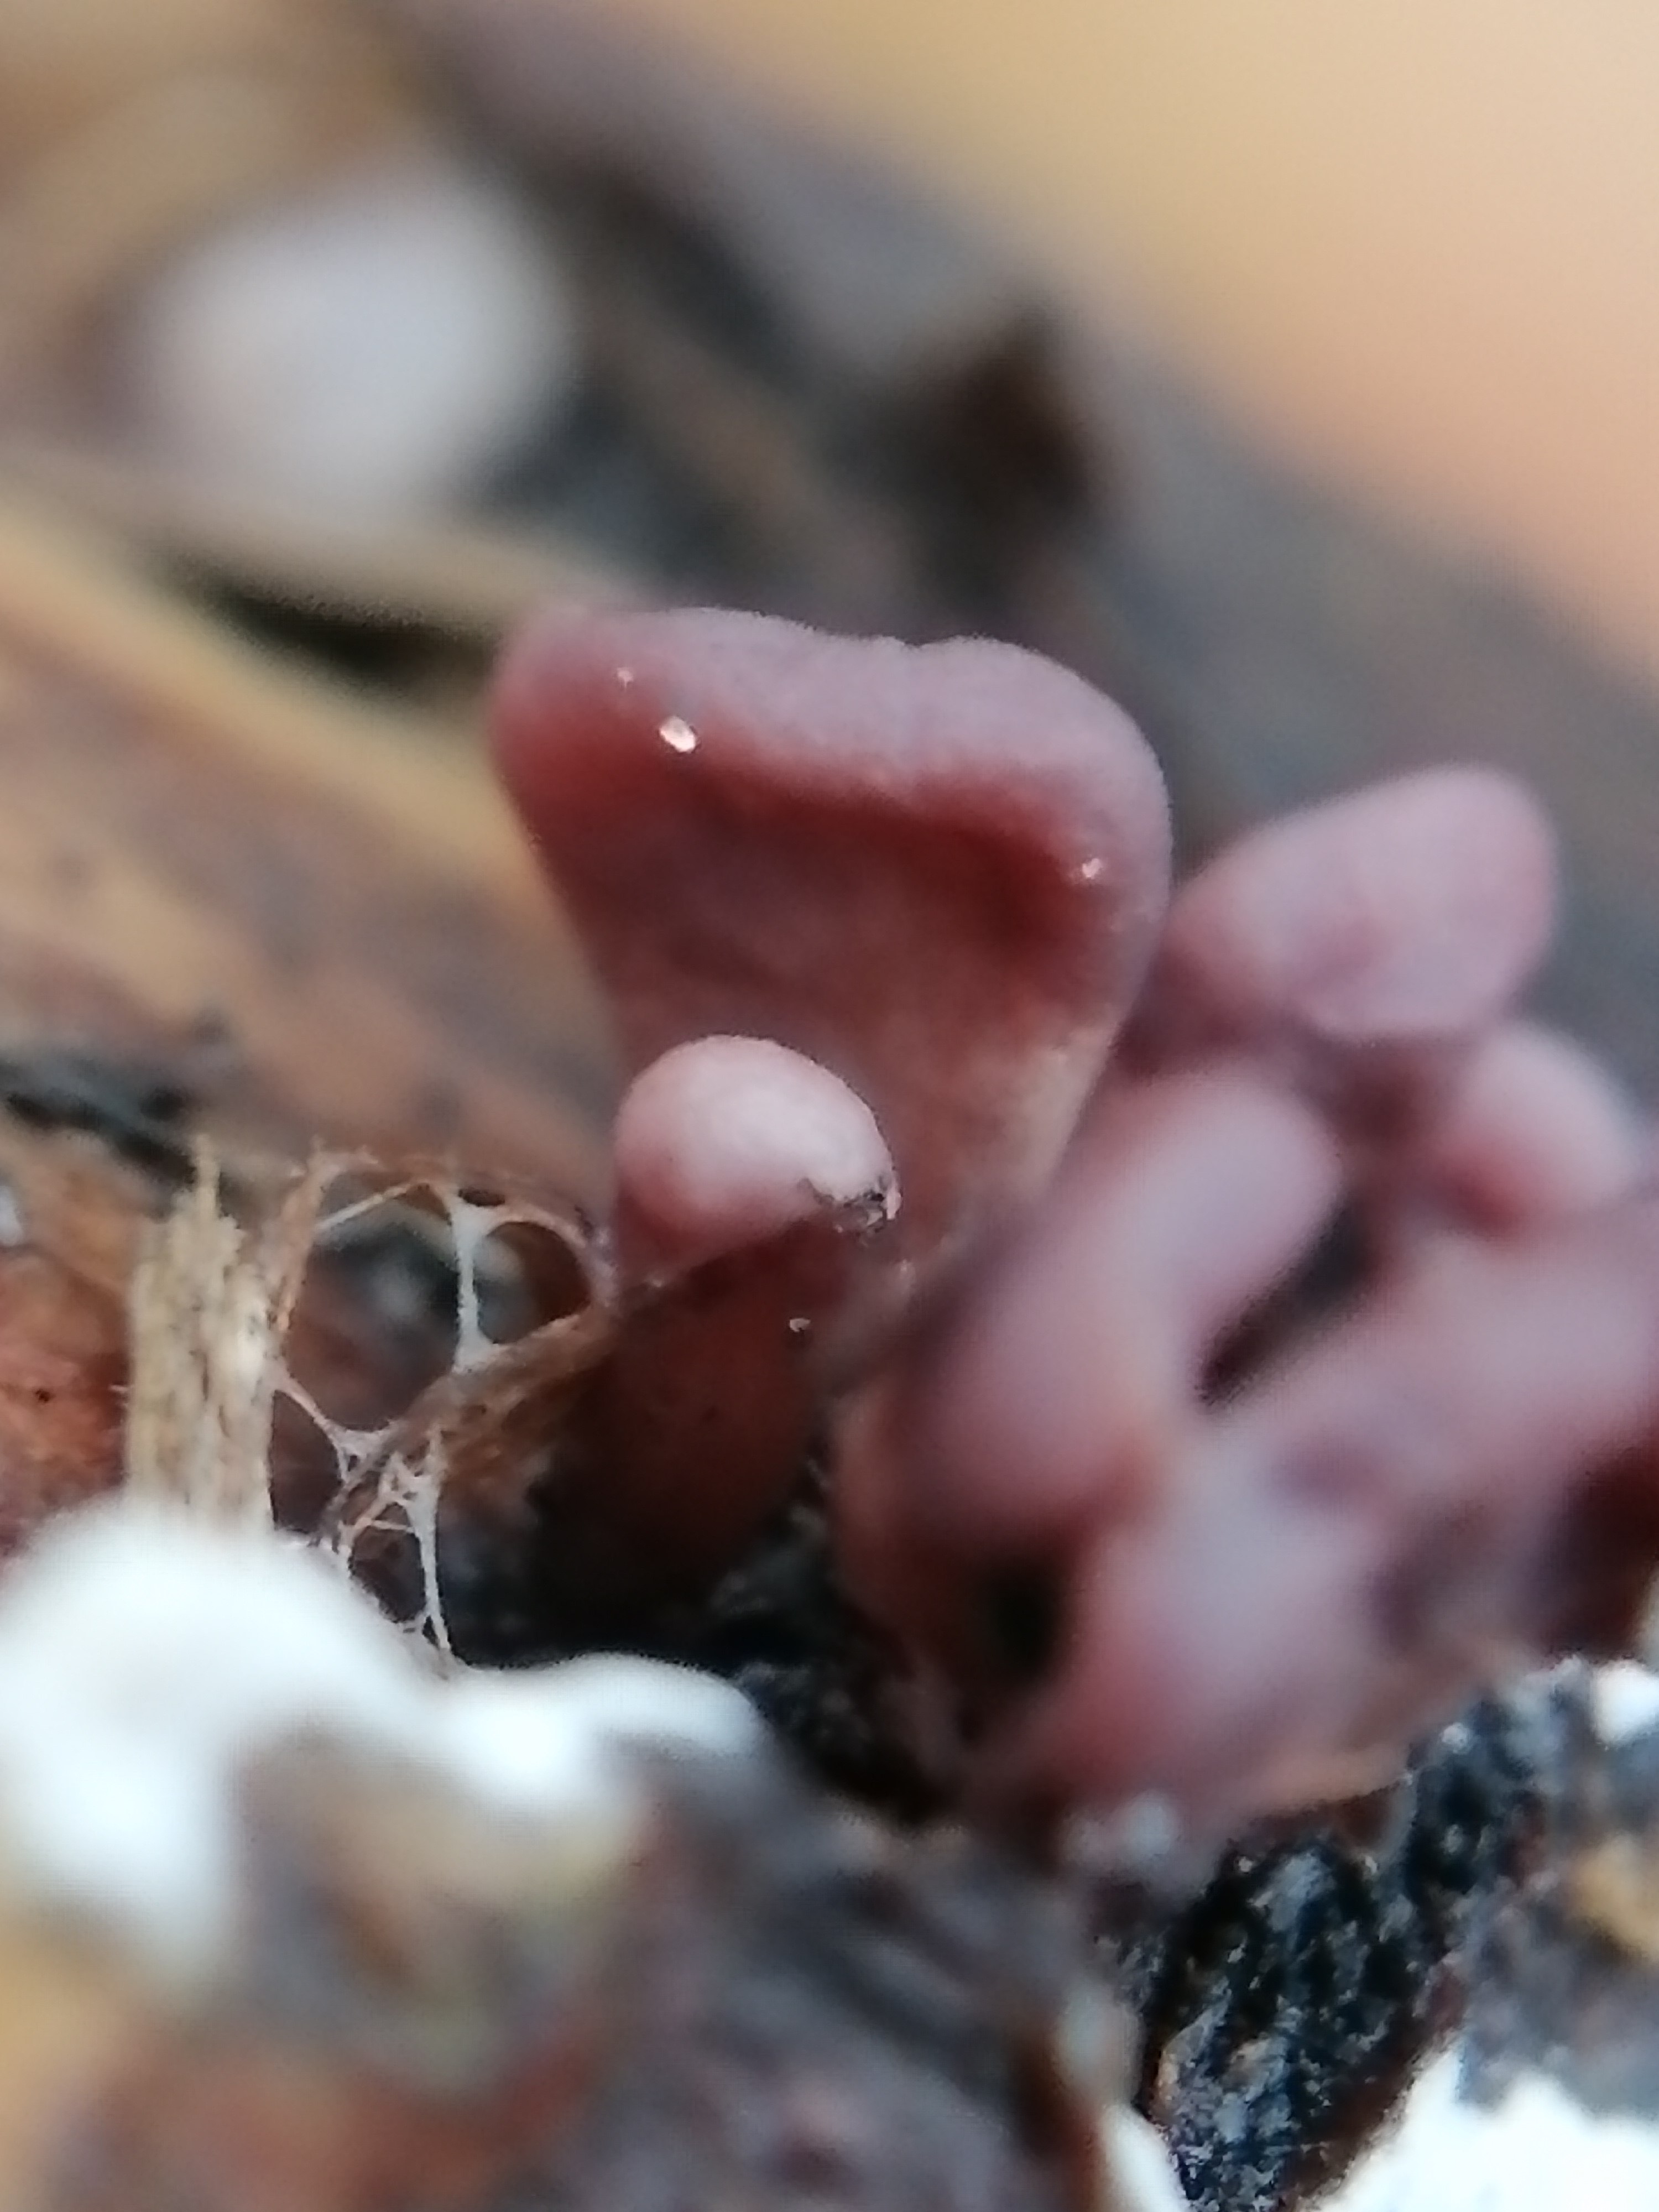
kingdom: Fungi
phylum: Ascomycota
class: Leotiomycetes
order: Helotiales
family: Gelatinodiscaceae
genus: Ascocoryne
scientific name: Ascocoryne sarcoides
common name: rødlilla sejskive
